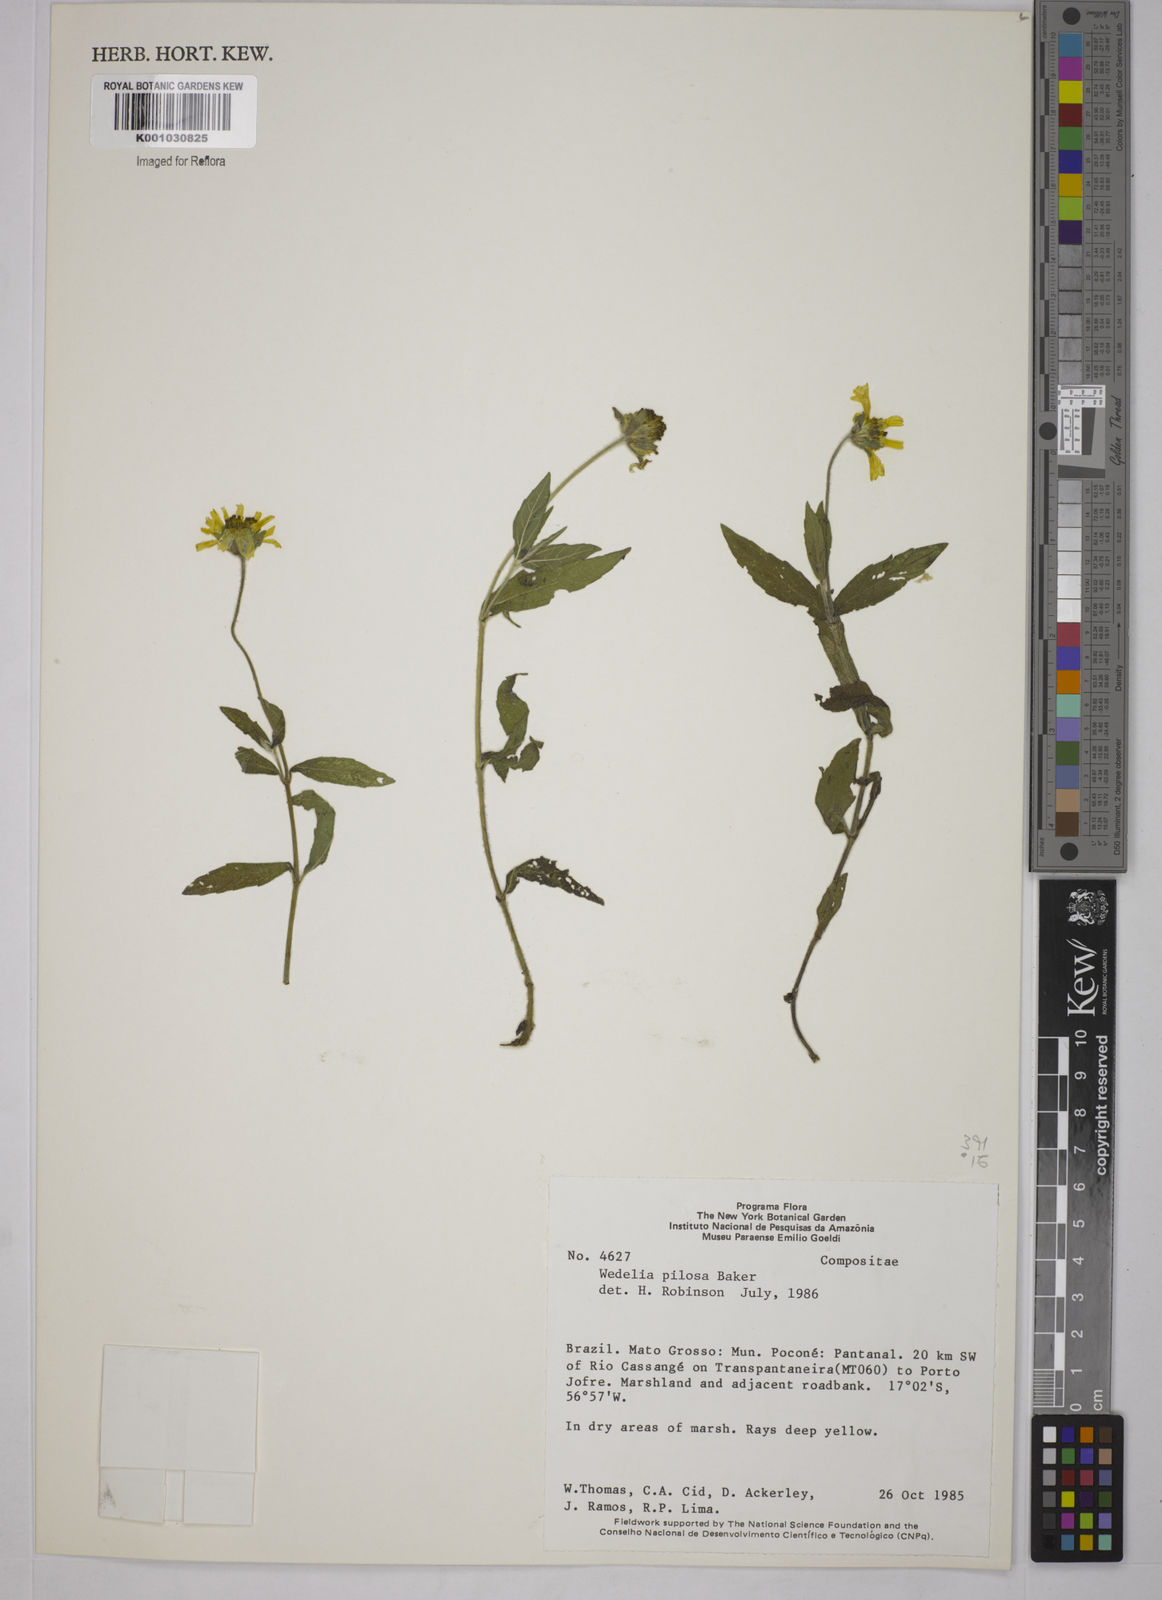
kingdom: Plantae
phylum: Tracheophyta
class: Magnoliopsida
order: Asterales
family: Asteraceae
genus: Sphagneticola
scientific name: Sphagneticola brachycarpa
